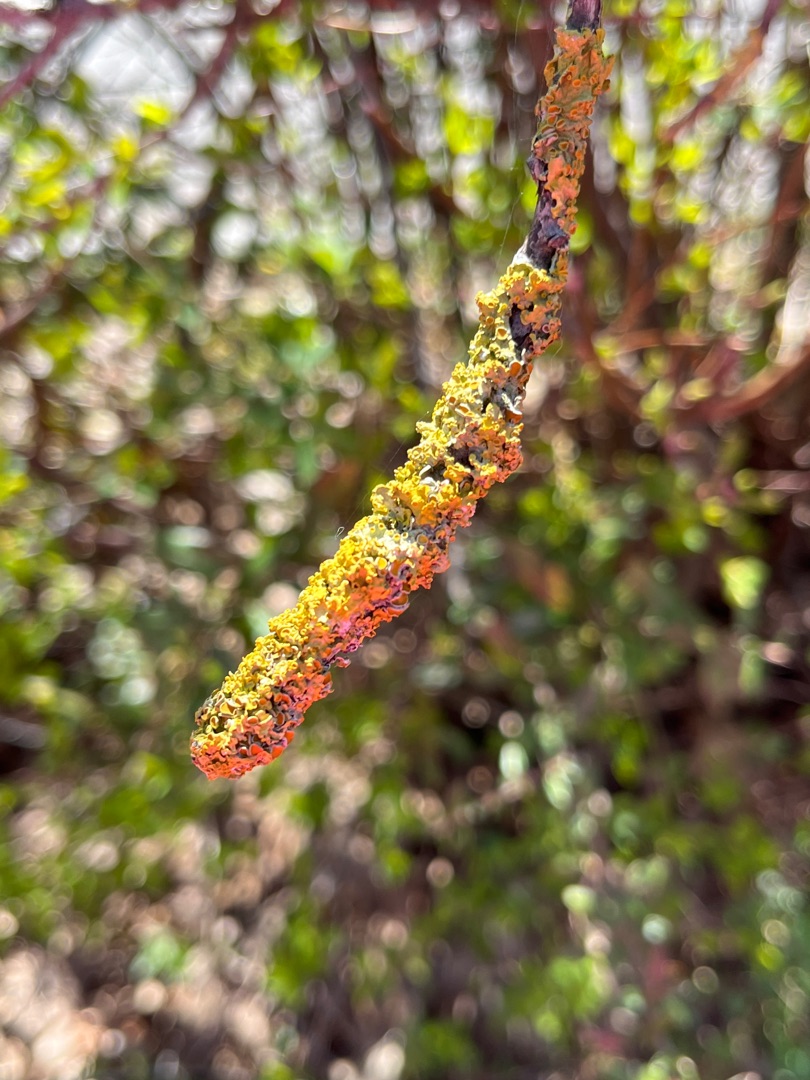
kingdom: Fungi
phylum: Ascomycota
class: Lecanoromycetes
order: Teloschistales
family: Teloschistaceae
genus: Xanthoria
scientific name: Xanthoria parietina
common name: Almindelig væggelav
